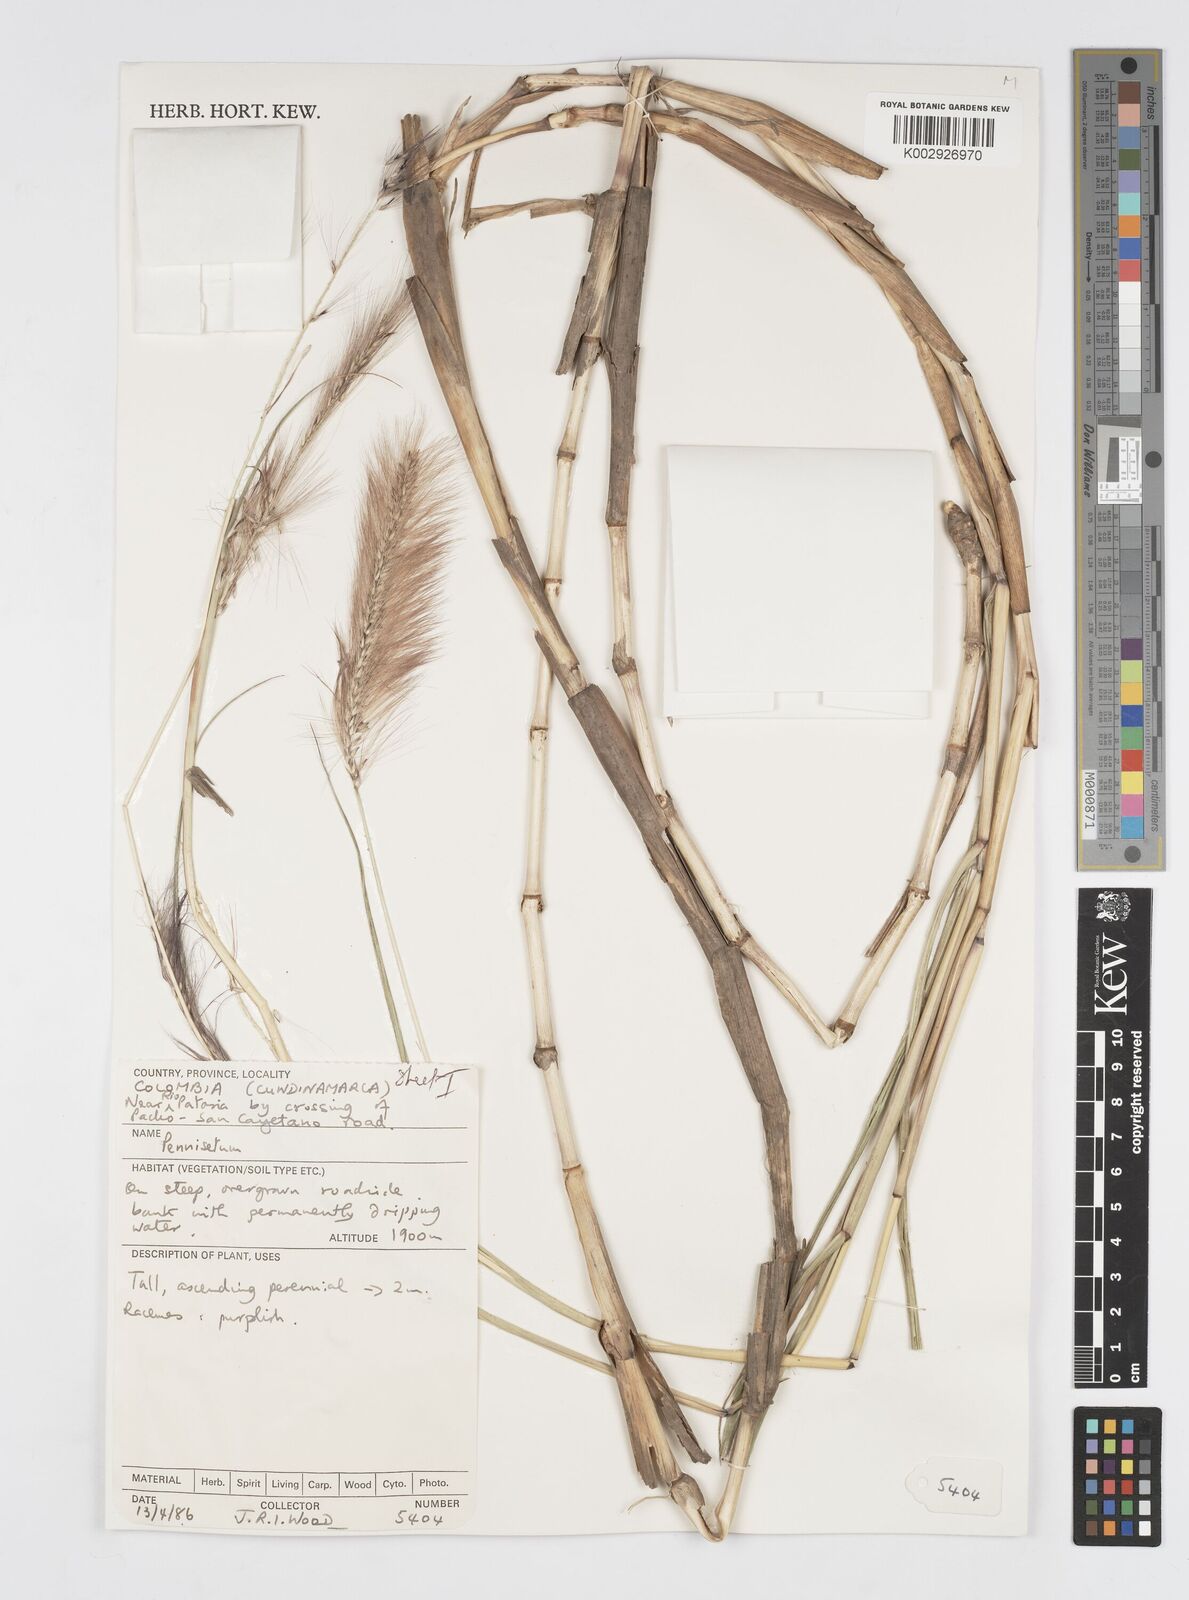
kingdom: Plantae
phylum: Tracheophyta
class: Liliopsida
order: Poales
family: Poaceae
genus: Cenchrus
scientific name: Cenchrus peruvianus
